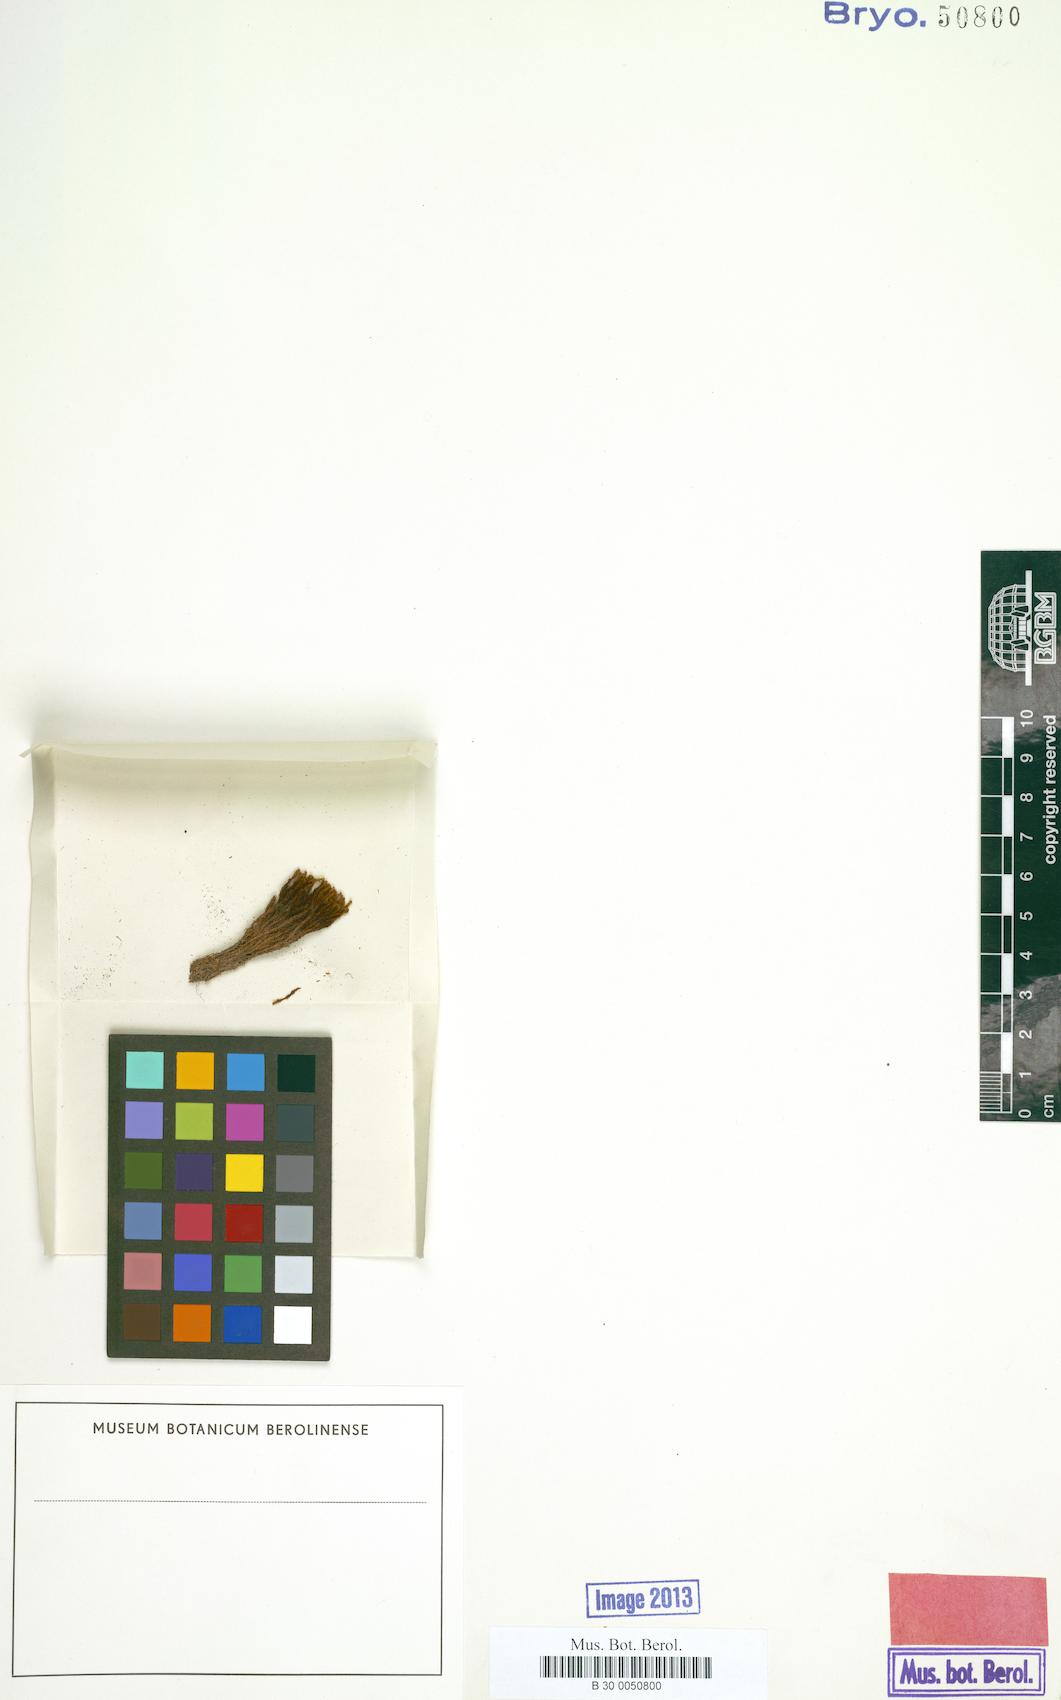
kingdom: Plantae
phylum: Bryophyta
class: Bryopsida
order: Pottiales
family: Pottiaceae
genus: Didymodon
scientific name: Didymodon contortus
